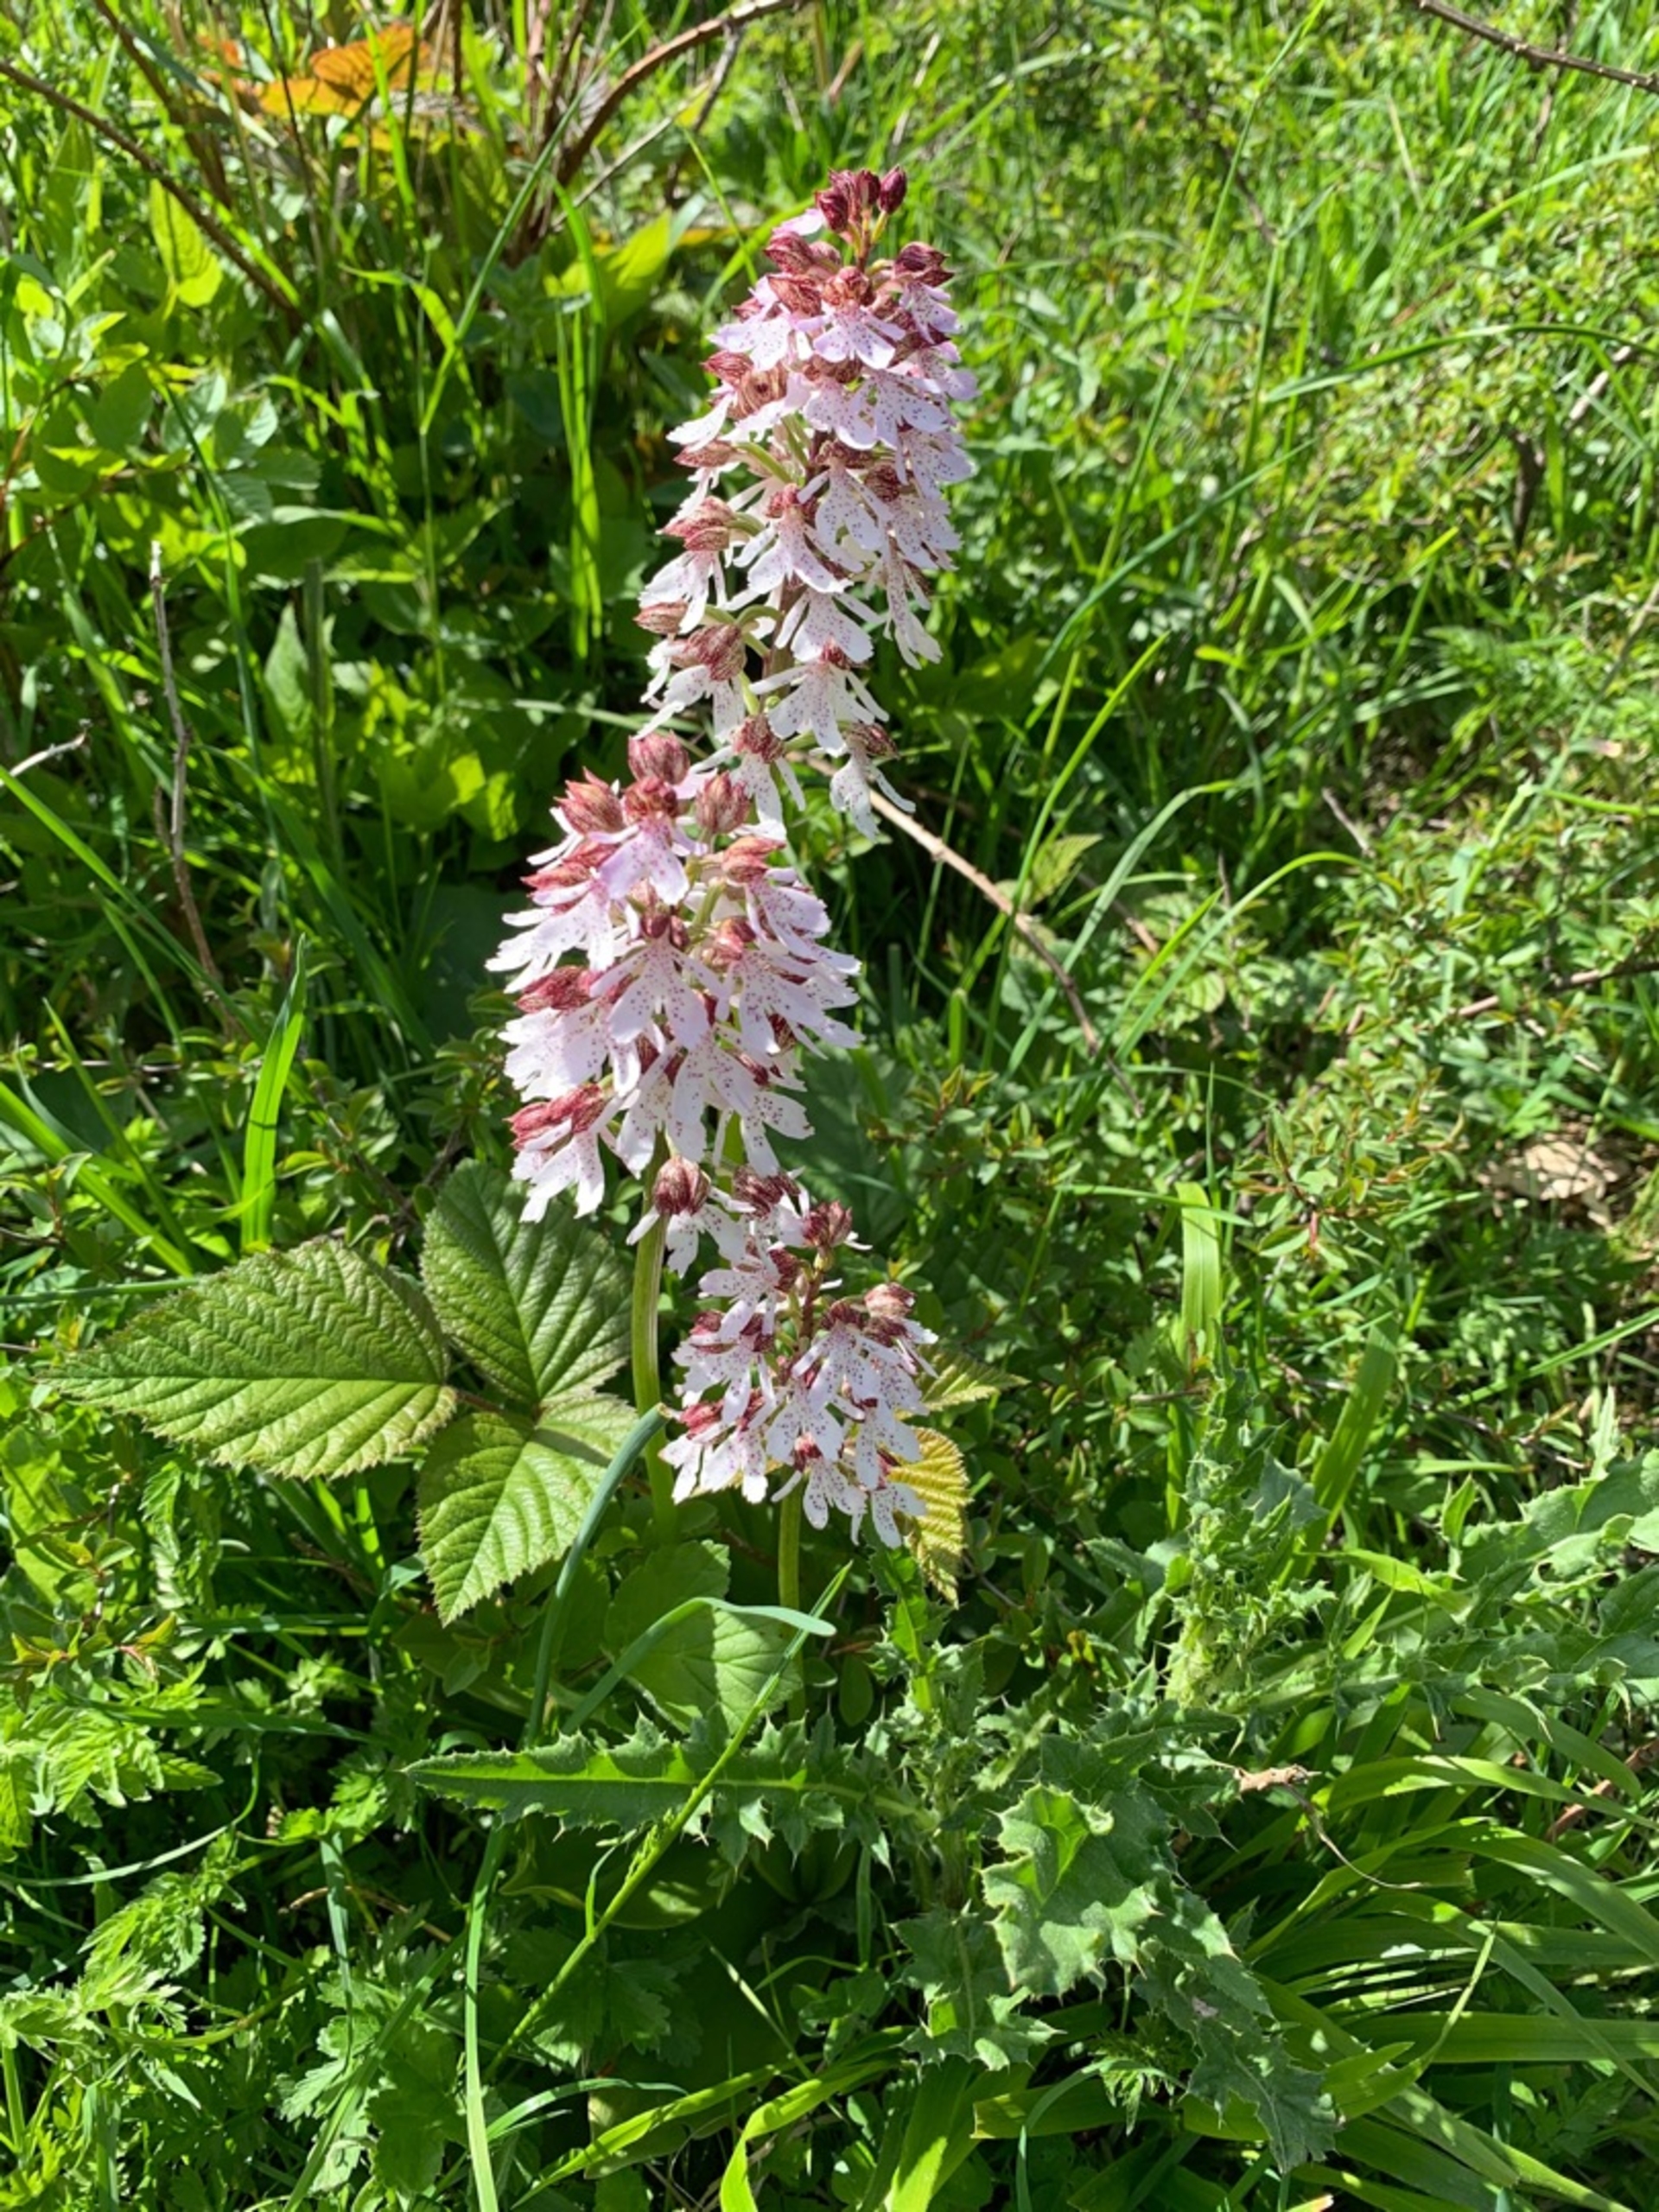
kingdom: Plantae
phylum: Tracheophyta
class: Liliopsida
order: Asparagales
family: Orchidaceae
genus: Orchis
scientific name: Orchis purpurea
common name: Stor gøgeurt
